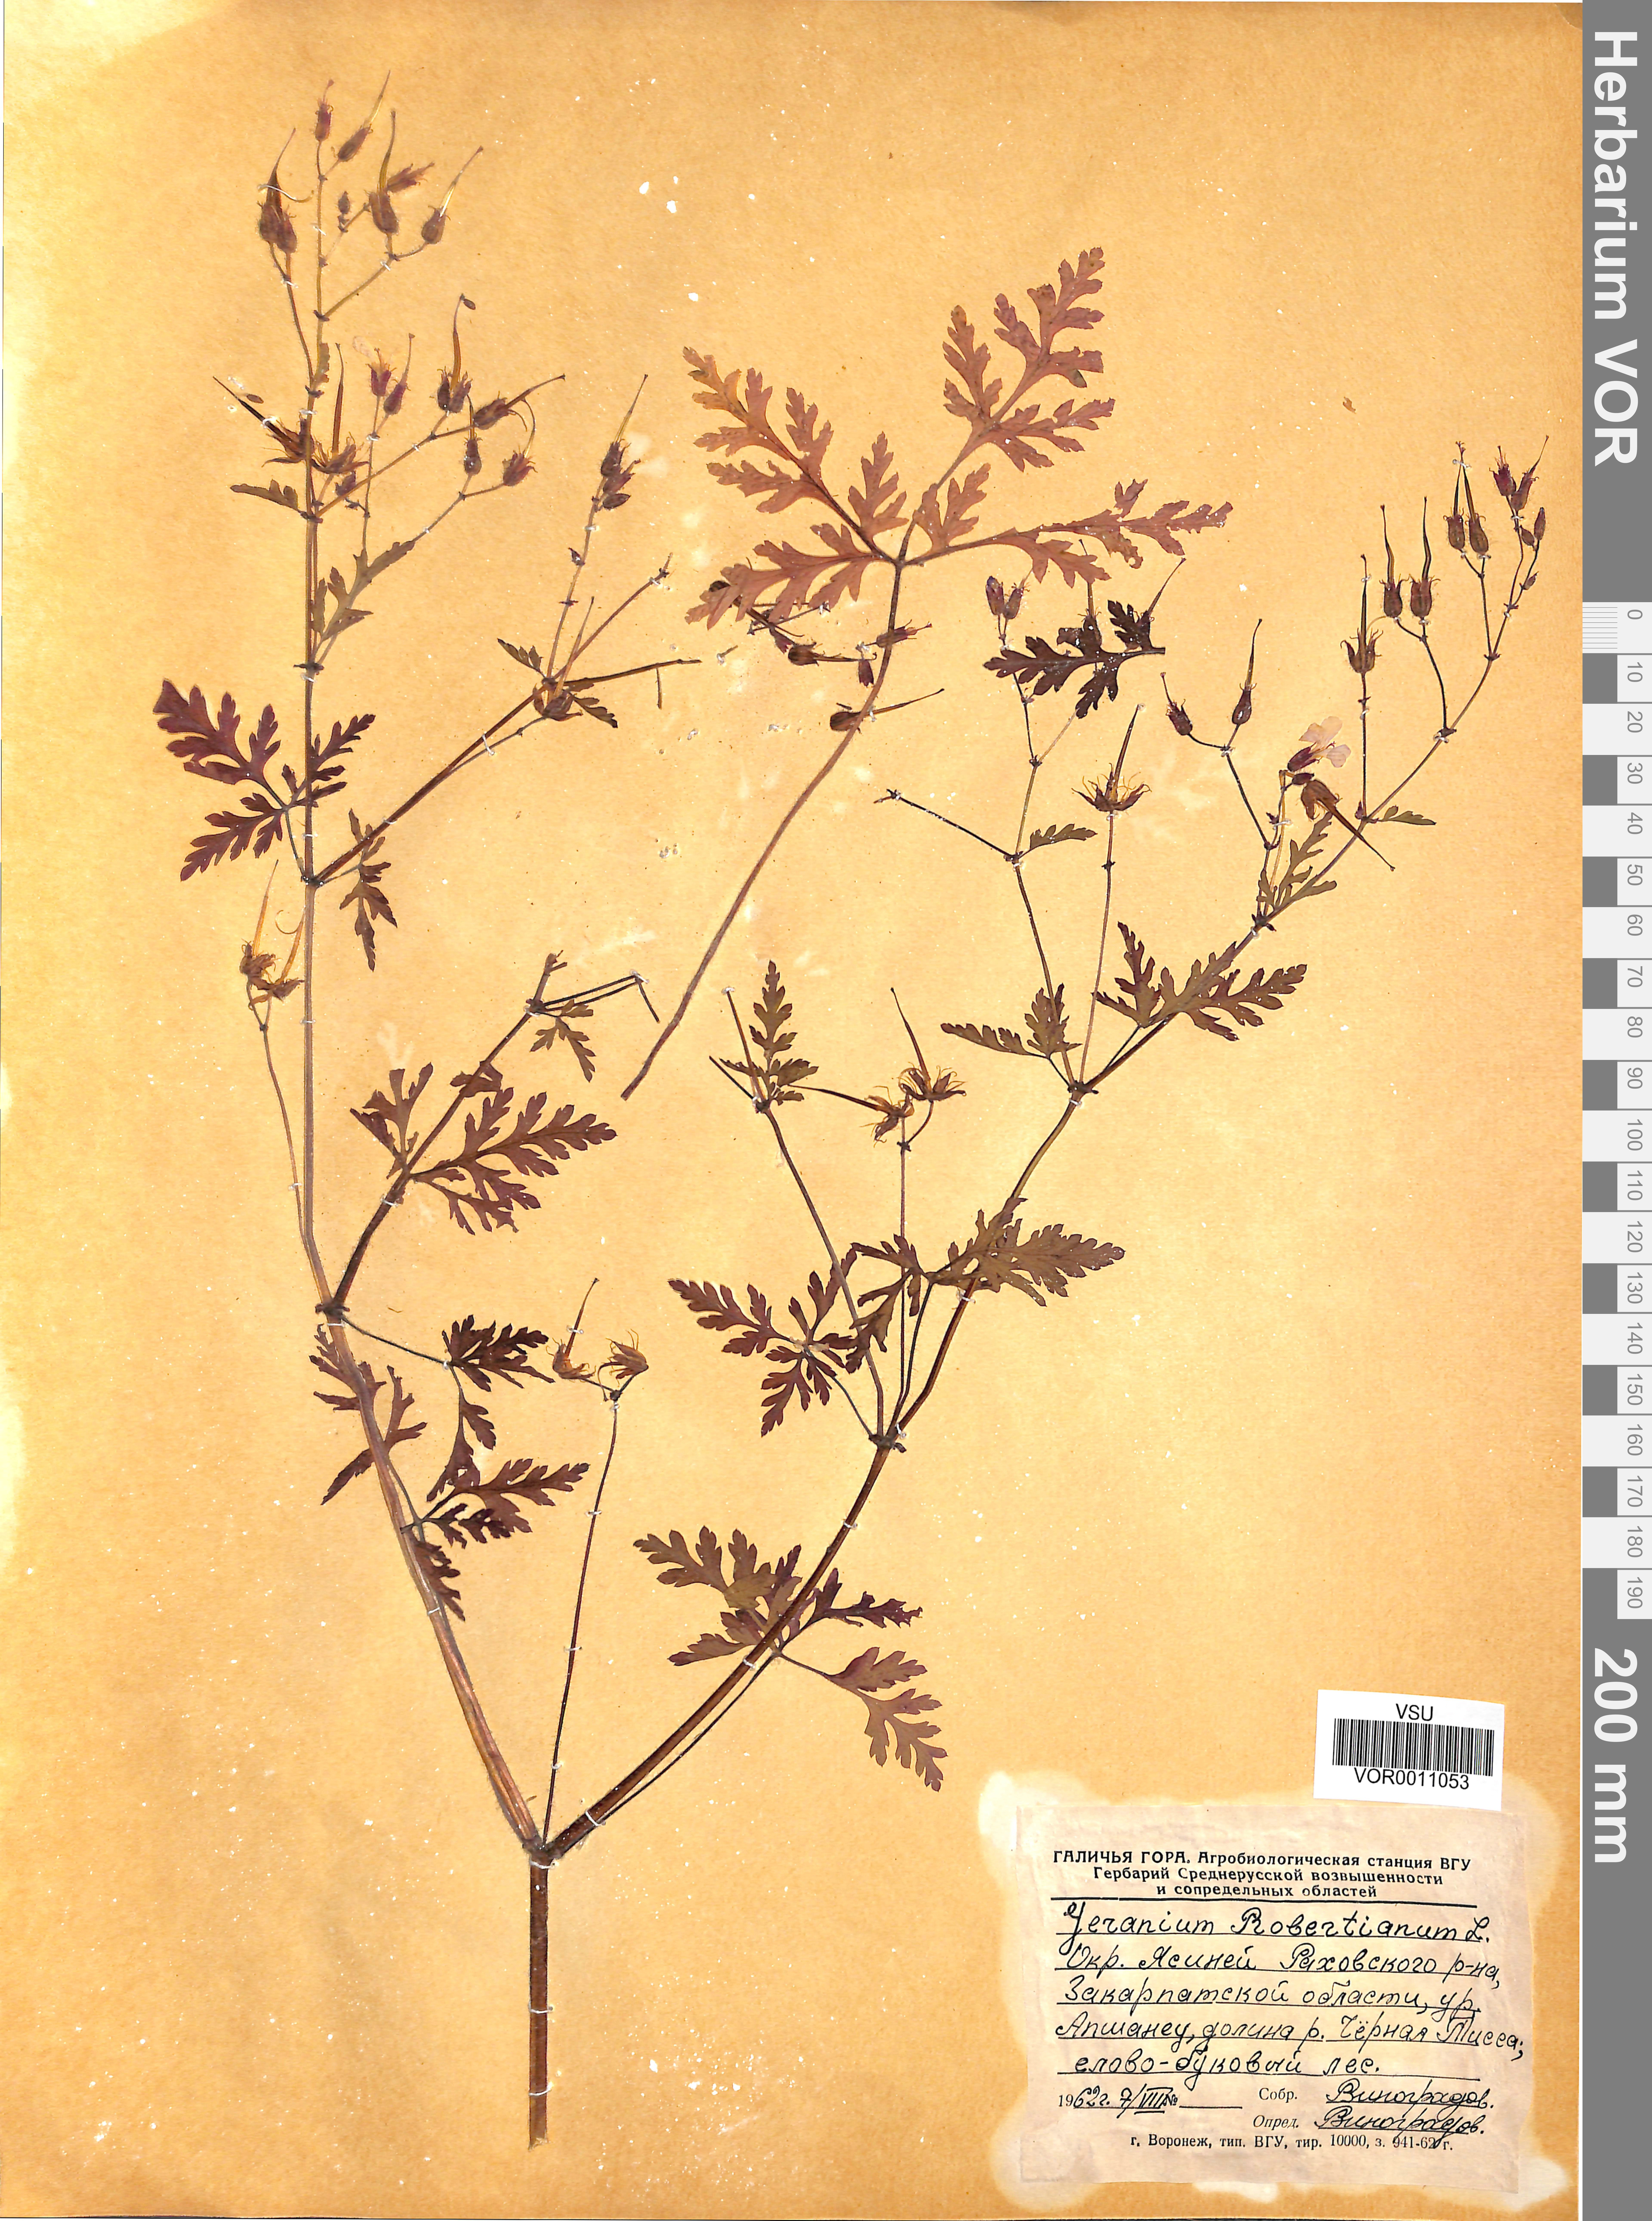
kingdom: Plantae
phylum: Tracheophyta
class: Magnoliopsida
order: Geraniales
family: Geraniaceae
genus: Geranium
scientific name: Geranium robertianum
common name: Herb-robert
